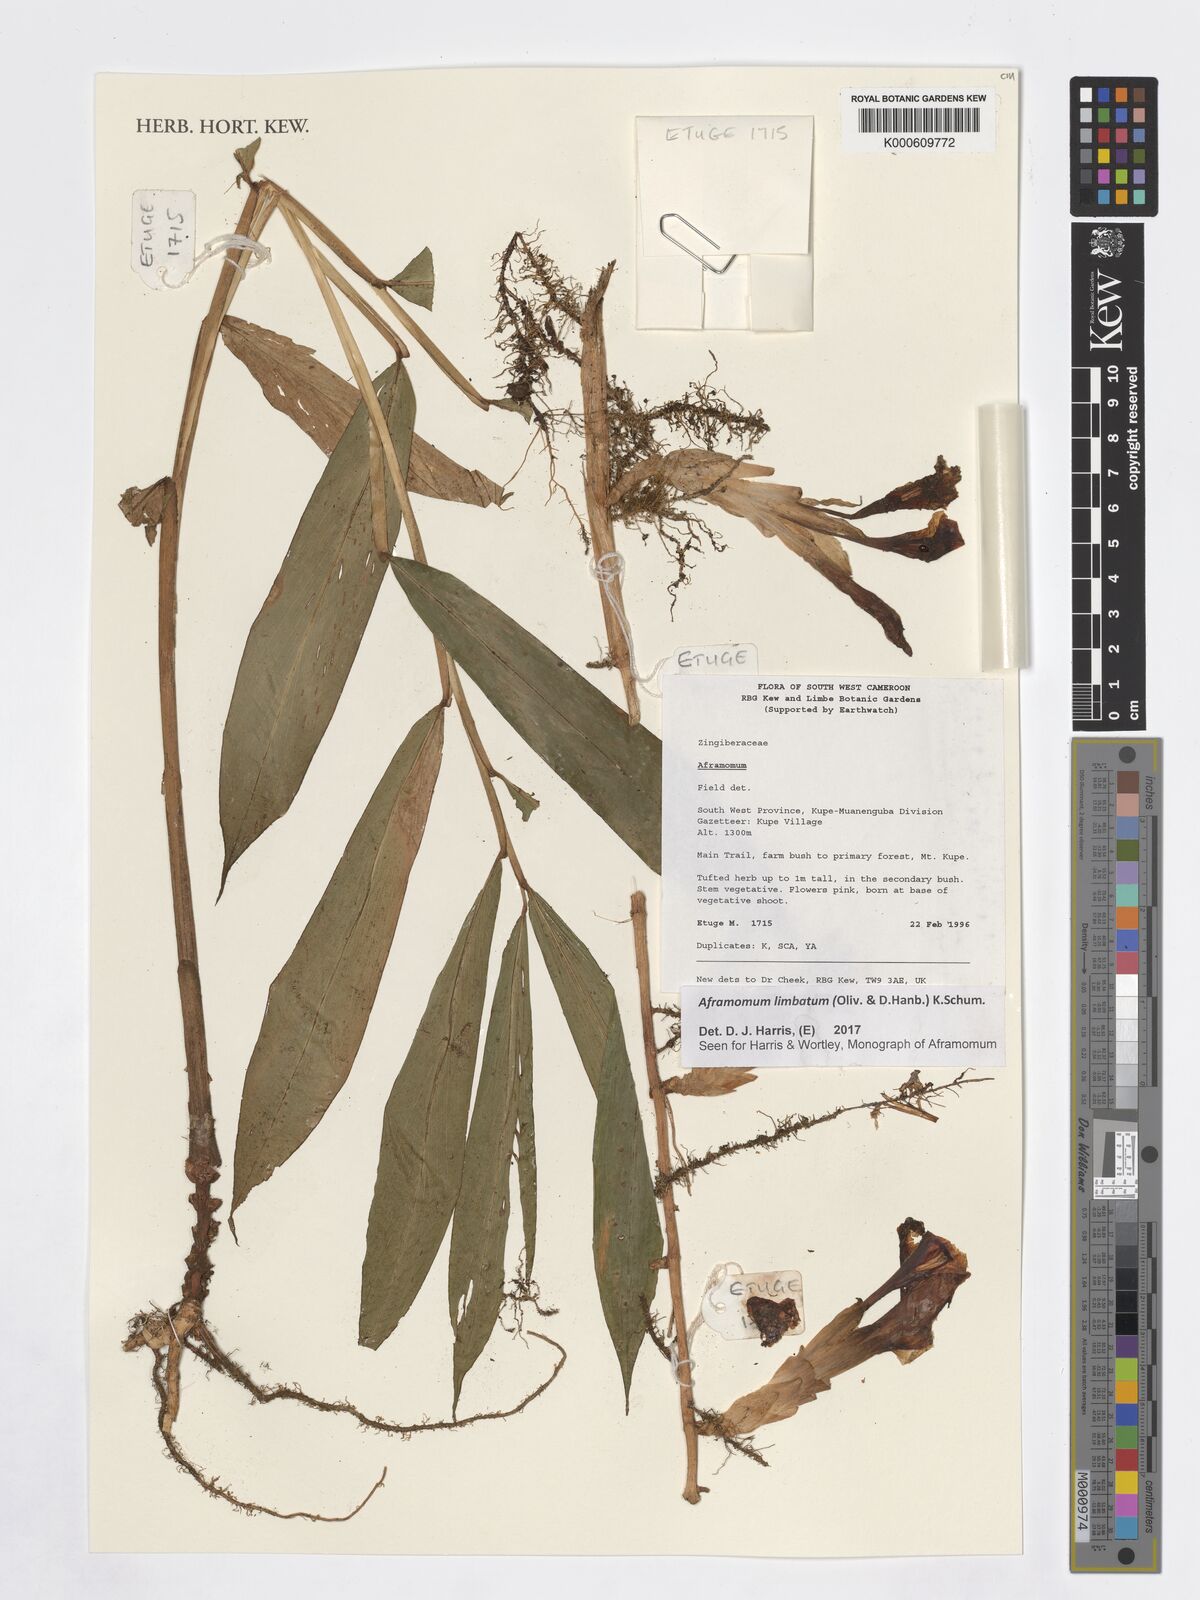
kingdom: Plantae
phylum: Tracheophyta
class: Liliopsida
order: Zingiberales
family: Zingiberaceae
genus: Aframomum
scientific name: Aframomum limbatum
